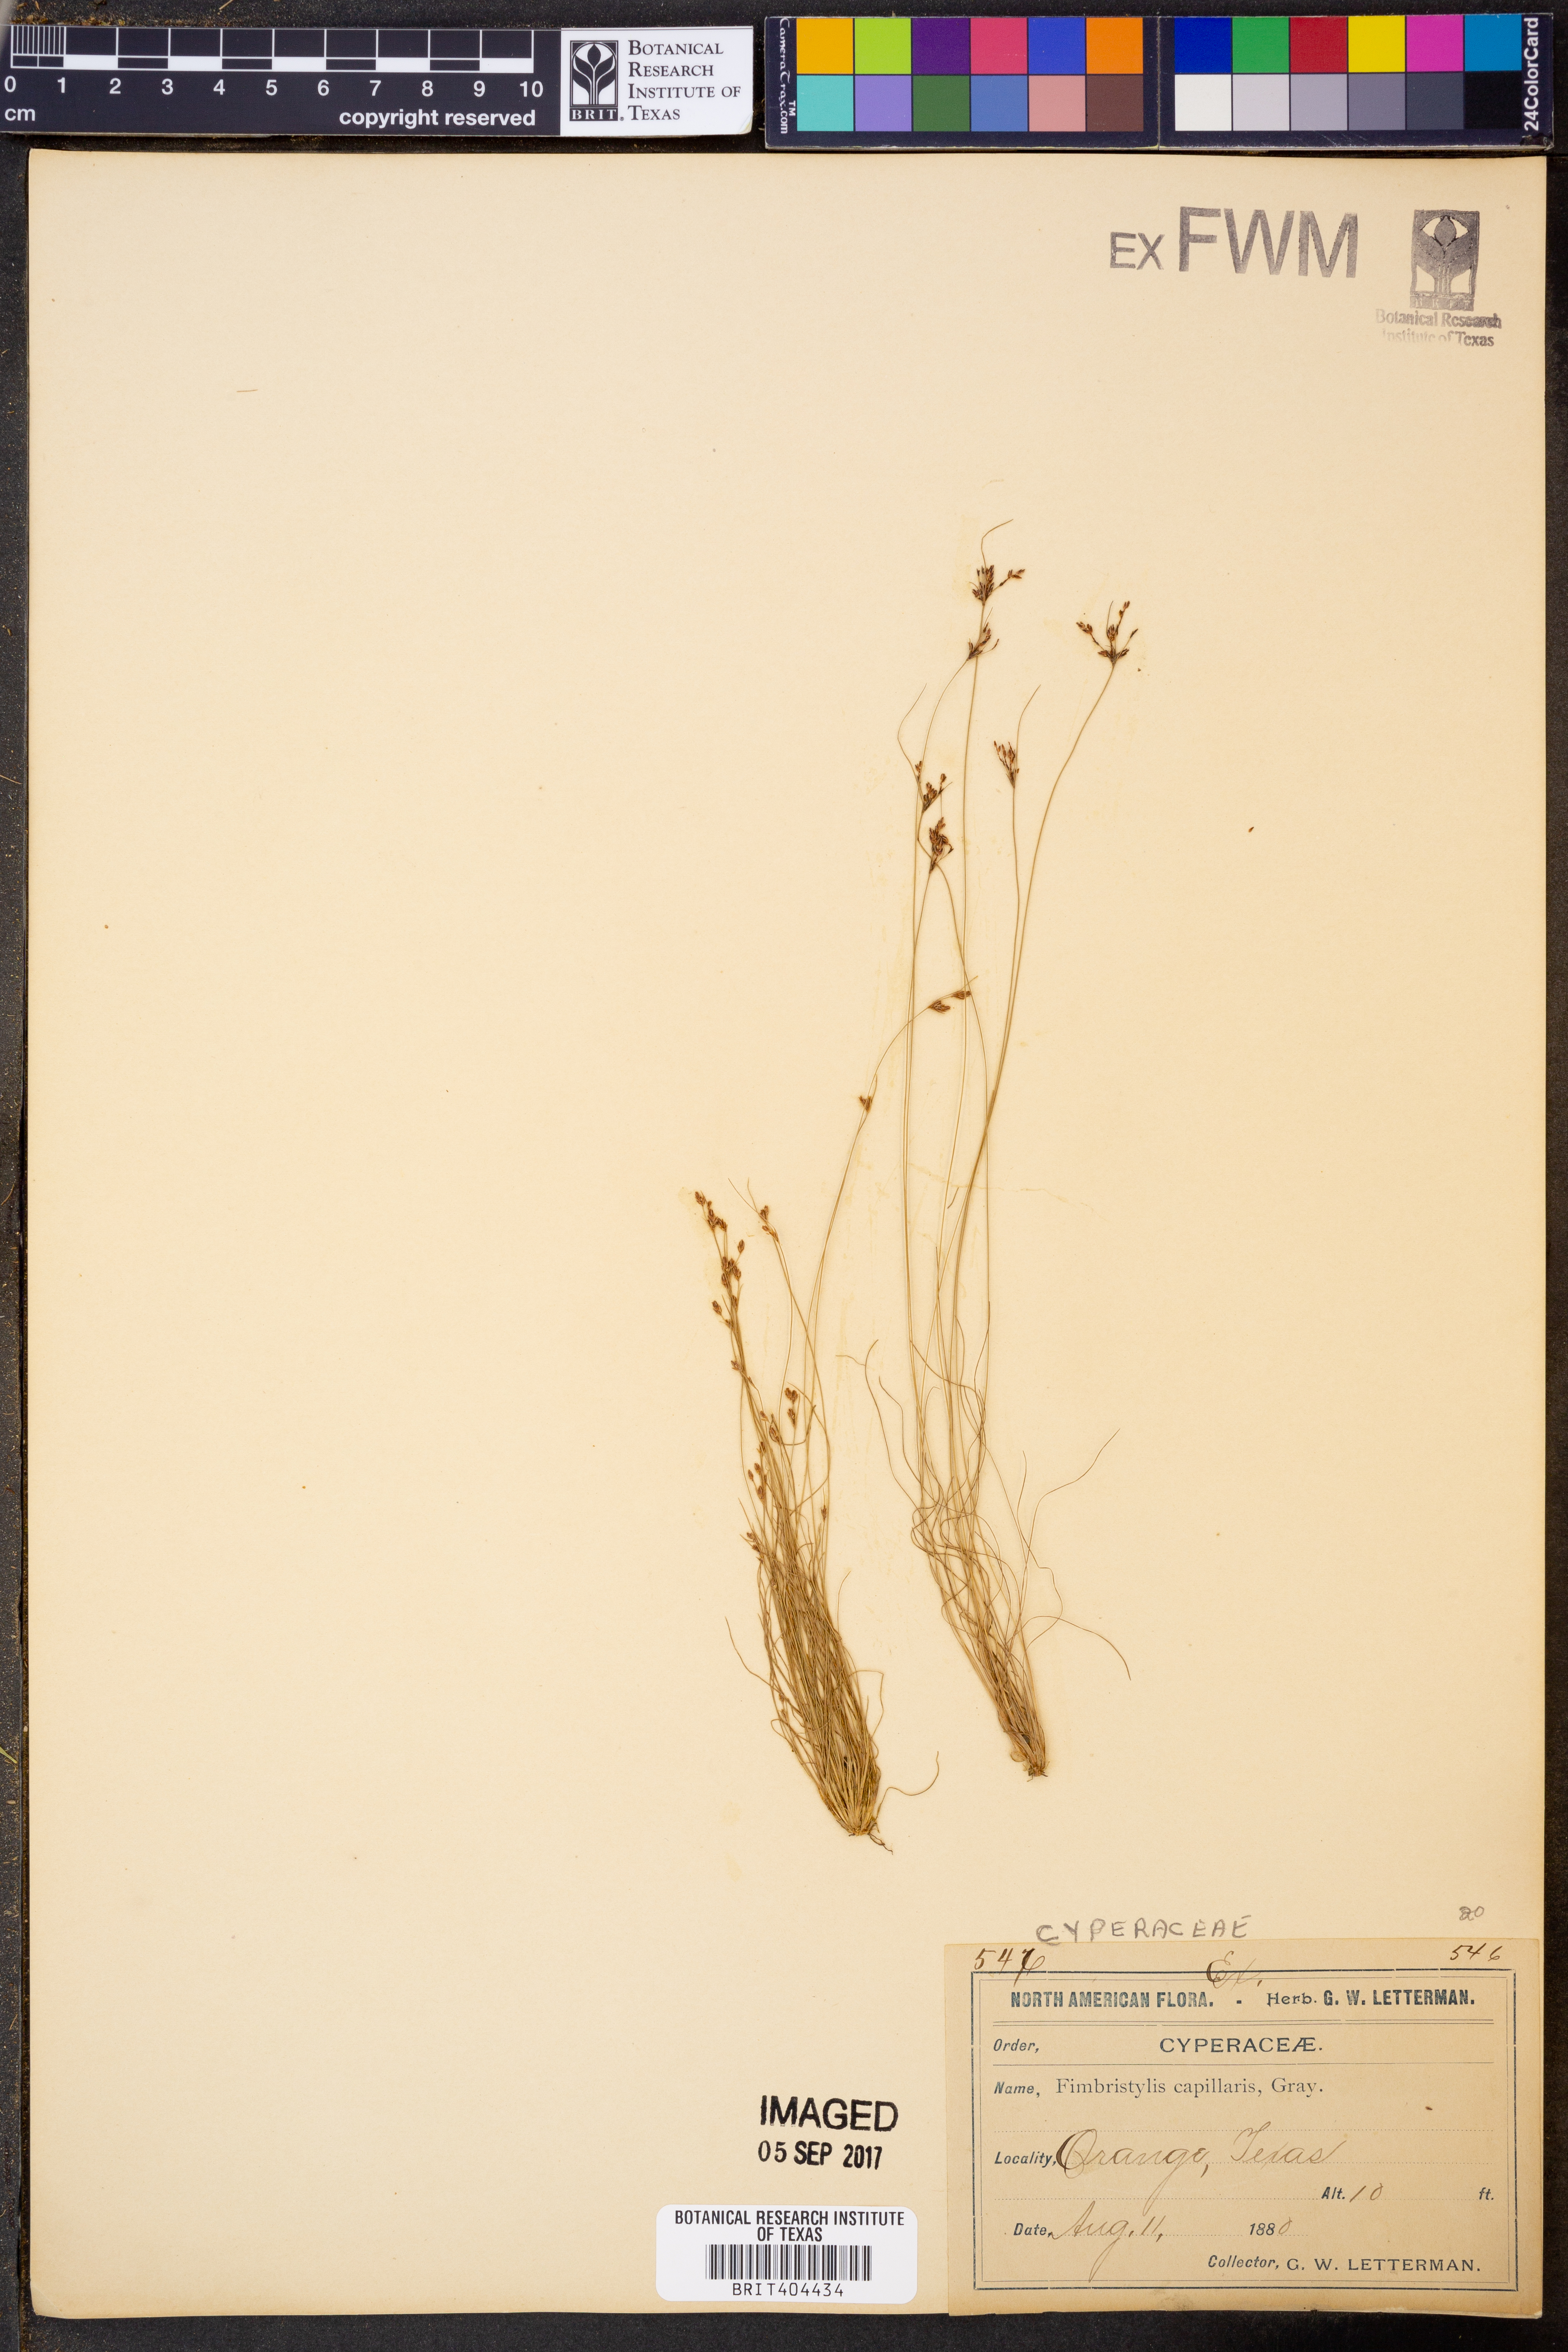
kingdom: Plantae
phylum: Tracheophyta
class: Liliopsida
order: Poales
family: Cyperaceae
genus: Bulbostylis
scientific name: Bulbostylis capillaris
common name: Densetuft hairsedge
